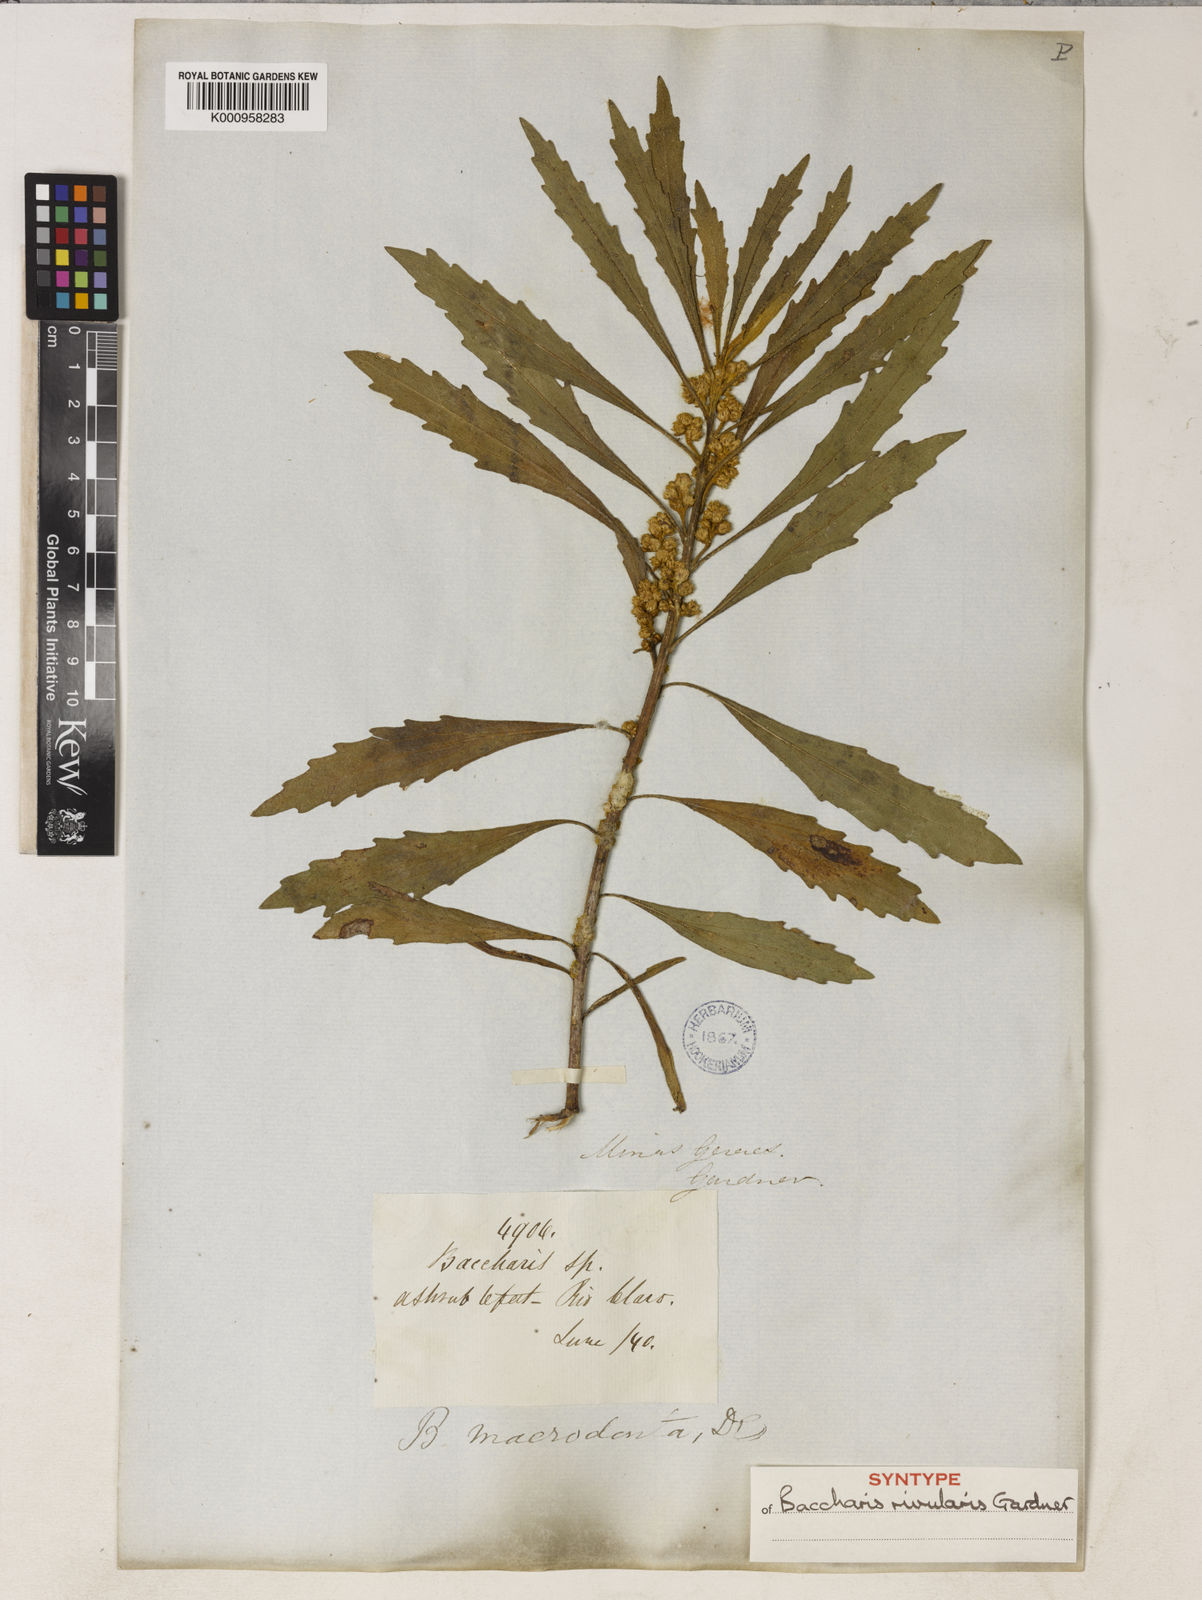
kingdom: Plantae
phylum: Tracheophyta
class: Magnoliopsida
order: Asterales
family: Asteraceae
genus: Baccharis
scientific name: Baccharis rivularis
